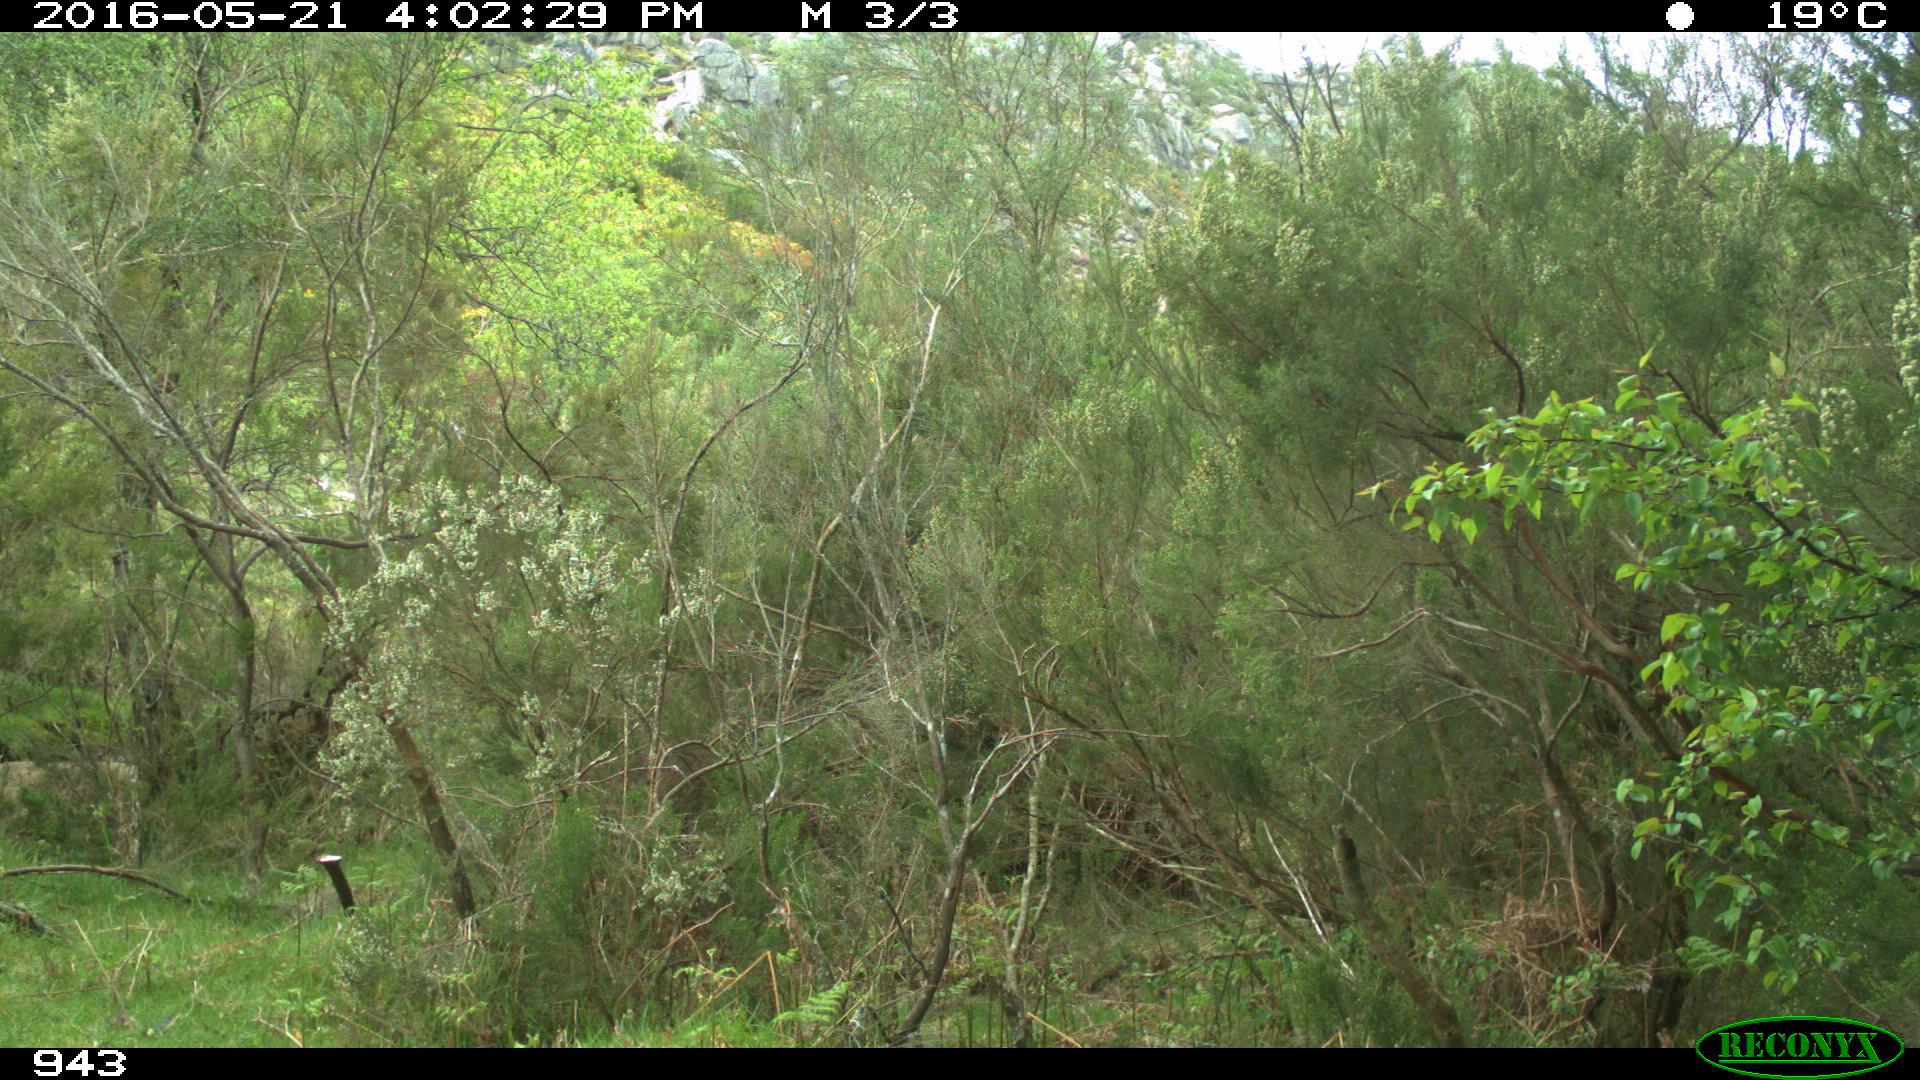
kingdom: Animalia
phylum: Chordata
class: Mammalia
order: Perissodactyla
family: Equidae
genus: Equus
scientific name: Equus caballus
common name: Horse
